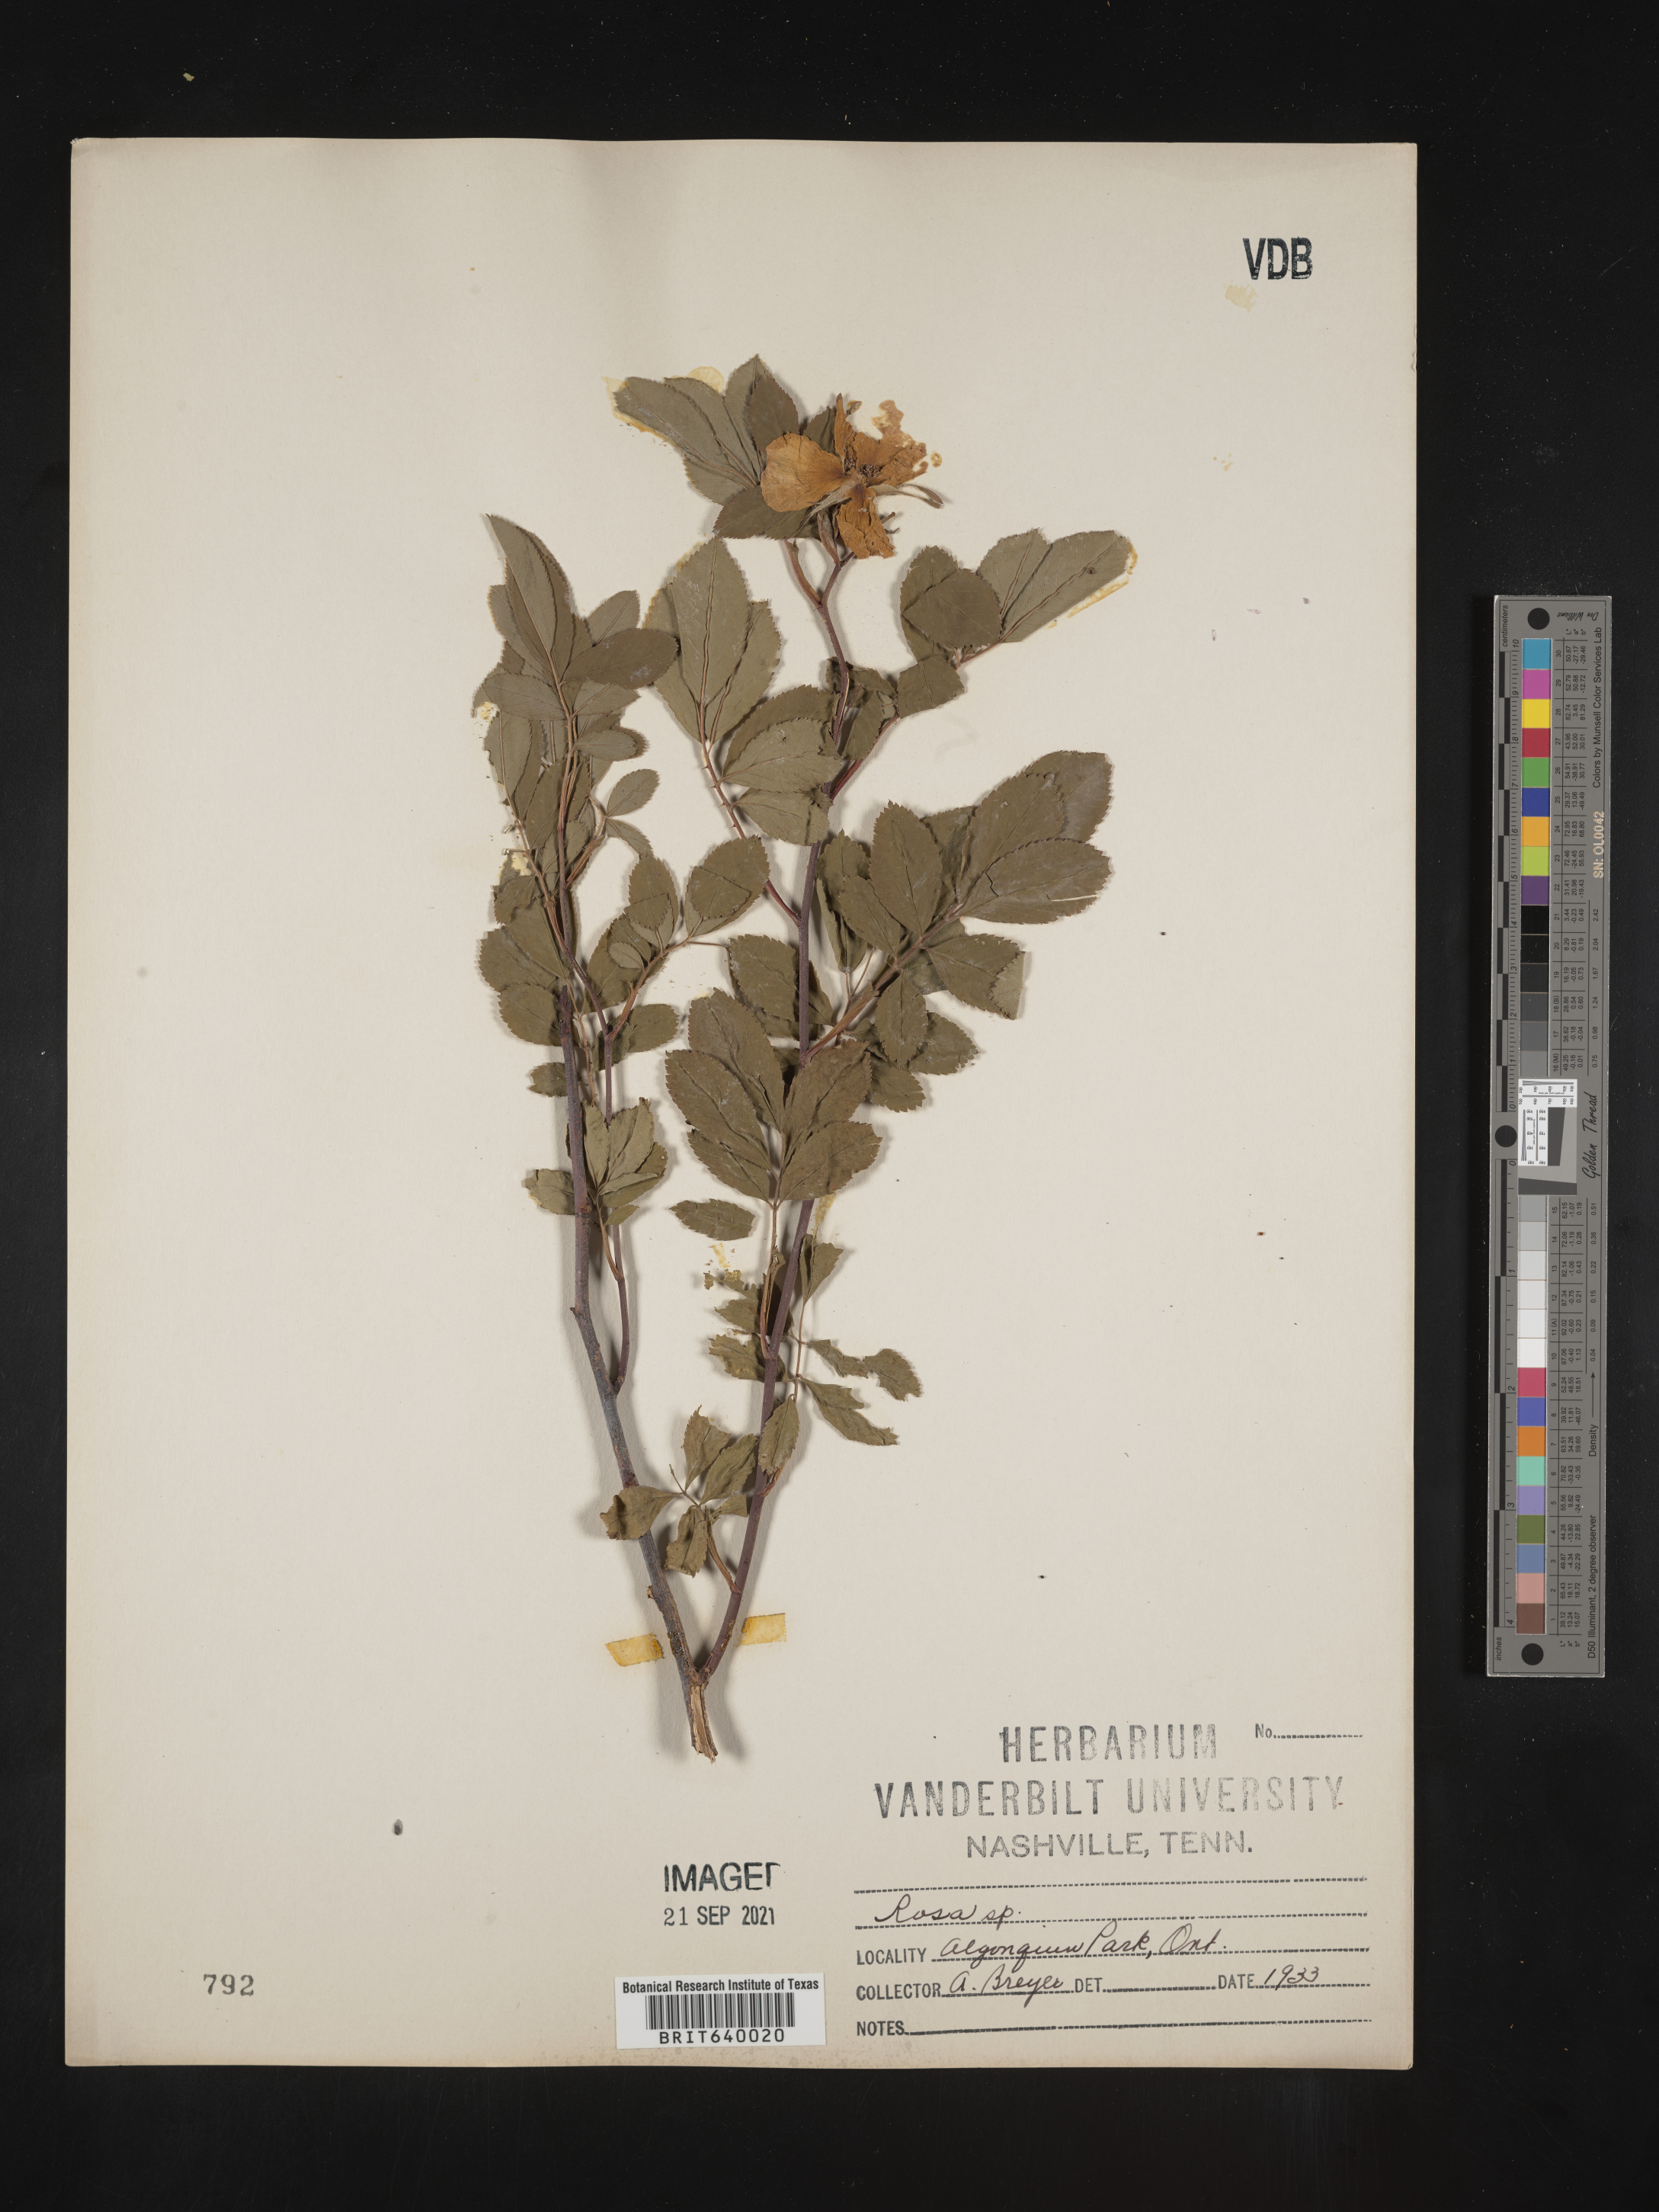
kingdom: Plantae
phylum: Tracheophyta
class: Magnoliopsida
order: Rosales
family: Rosaceae
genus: Rosa
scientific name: Rosa
